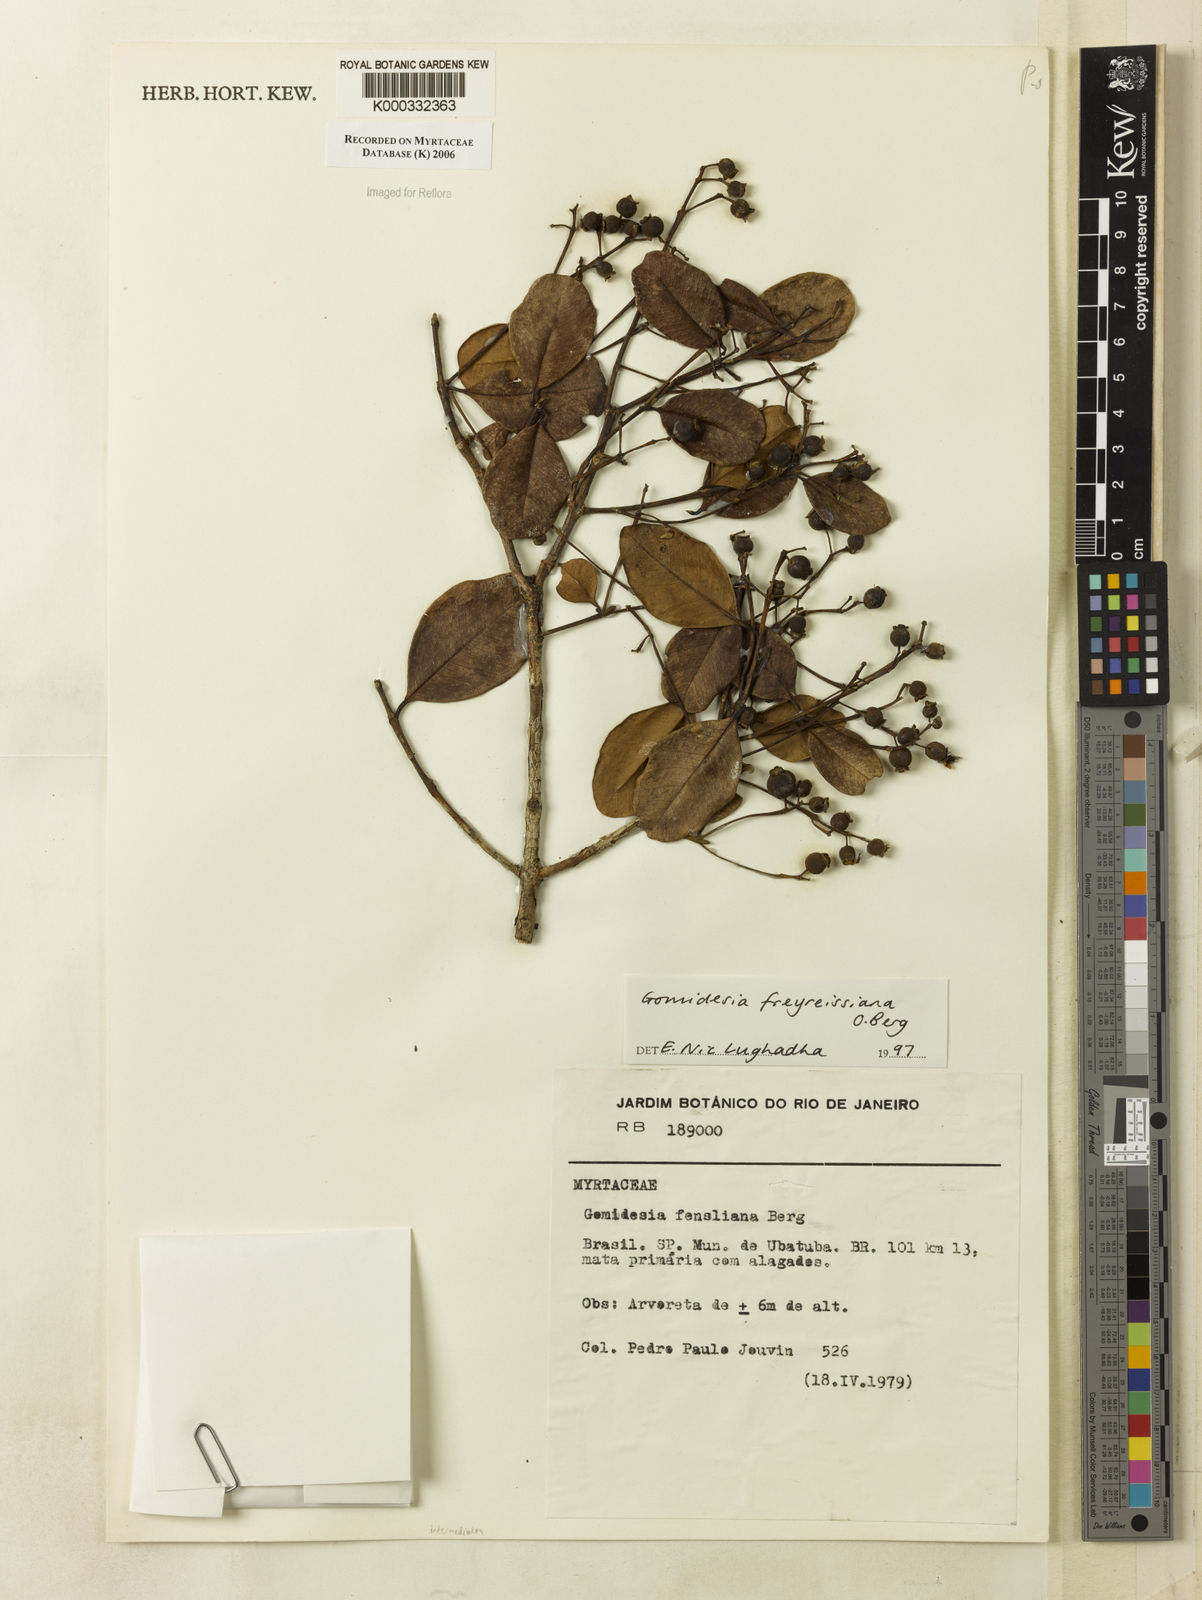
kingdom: Plantae
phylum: Tracheophyta
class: Magnoliopsida
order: Myrtales
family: Myrtaceae
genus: Myrcia
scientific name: Myrcia freyreissiana
